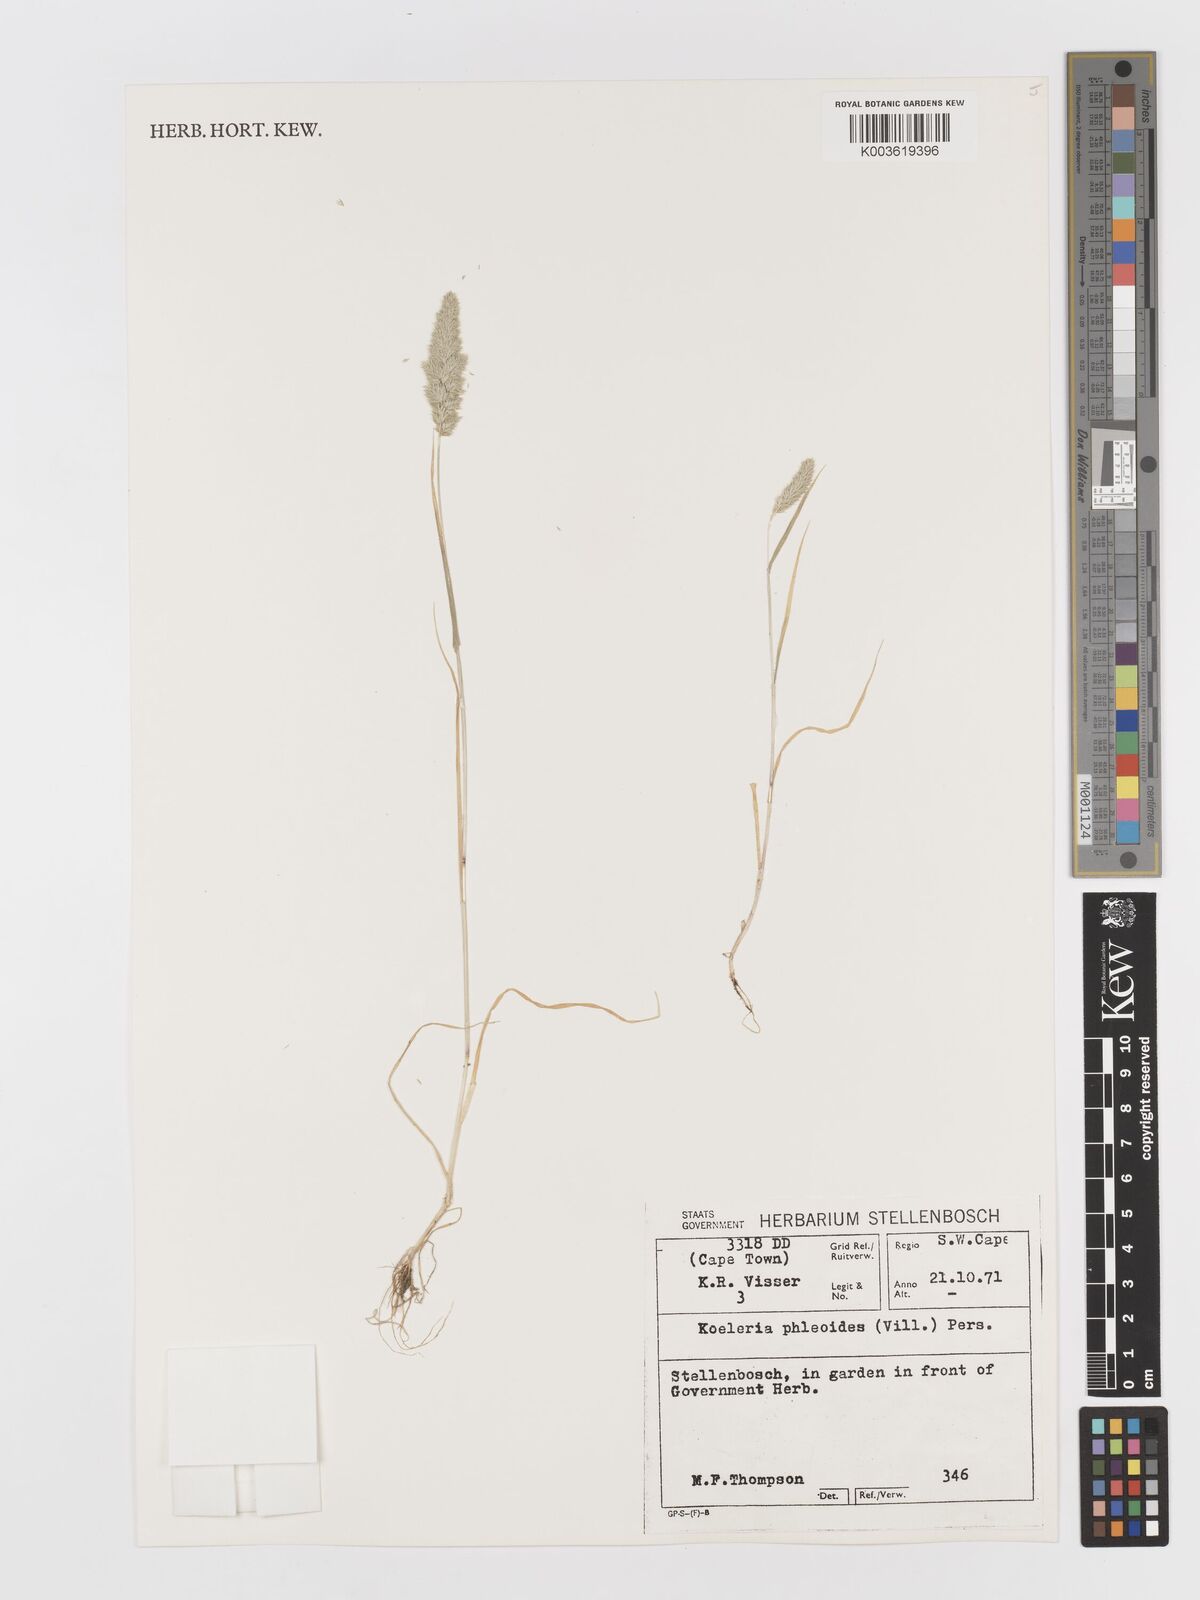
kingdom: Plantae
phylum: Tracheophyta
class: Liliopsida
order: Poales
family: Poaceae
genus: Rostraria
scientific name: Rostraria cristata
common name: Mediterranean hair-grass
